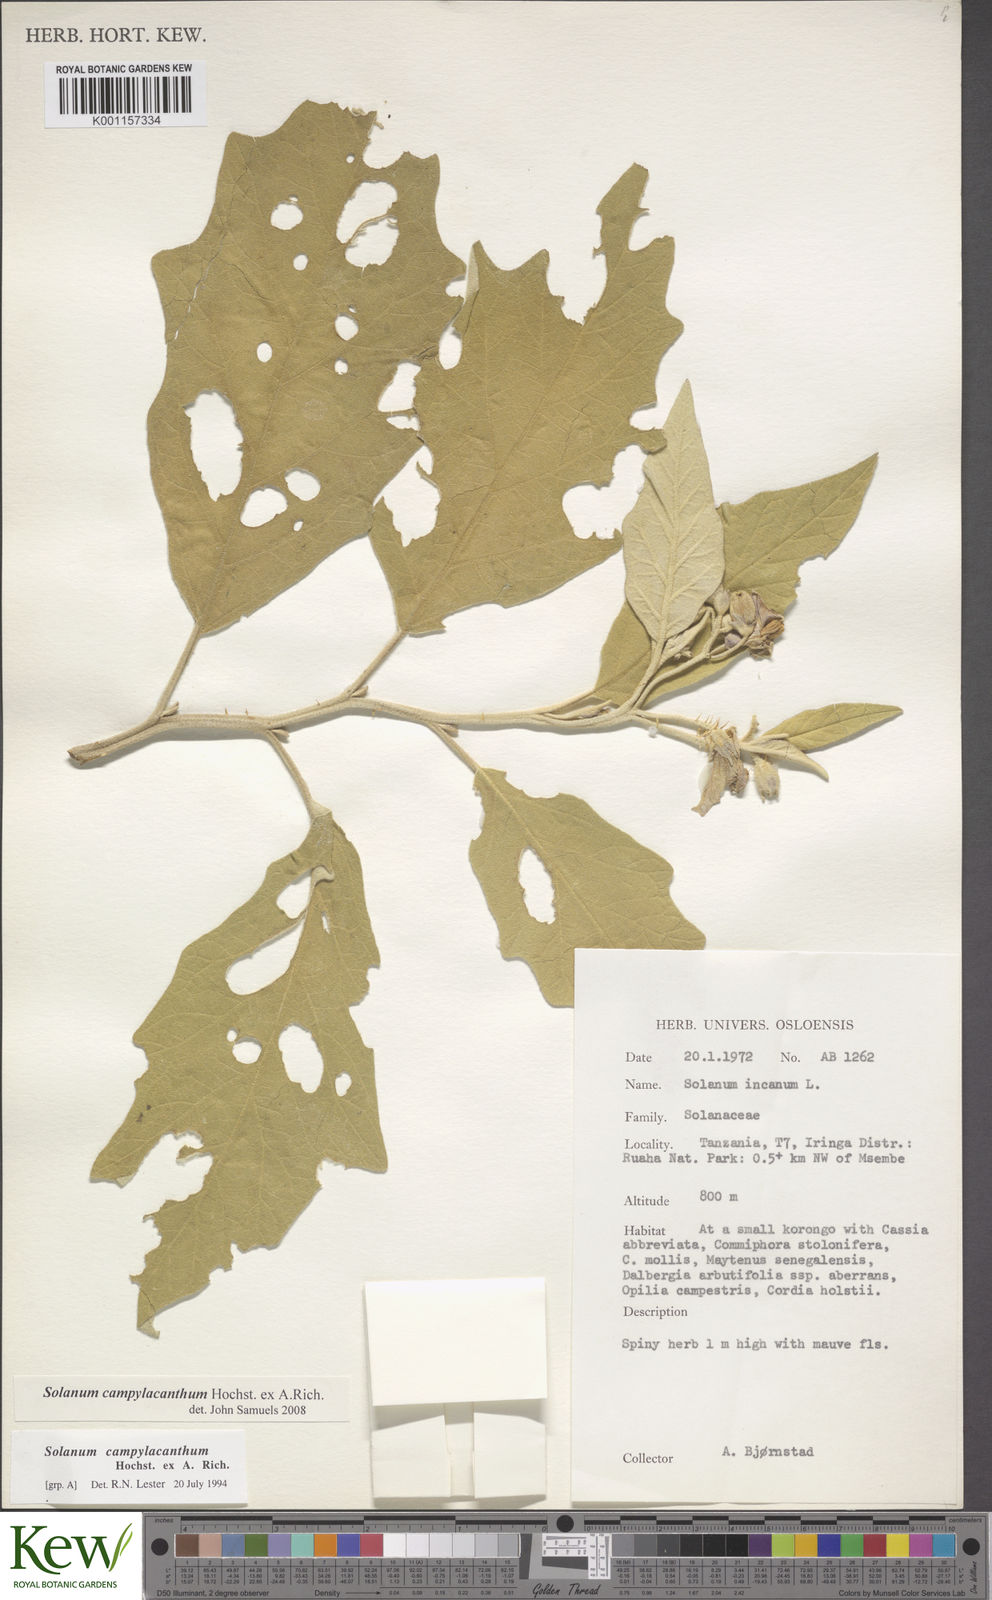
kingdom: Plantae
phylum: Tracheophyta
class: Magnoliopsida
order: Solanales
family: Solanaceae
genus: Solanum
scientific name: Solanum campylacanthum
